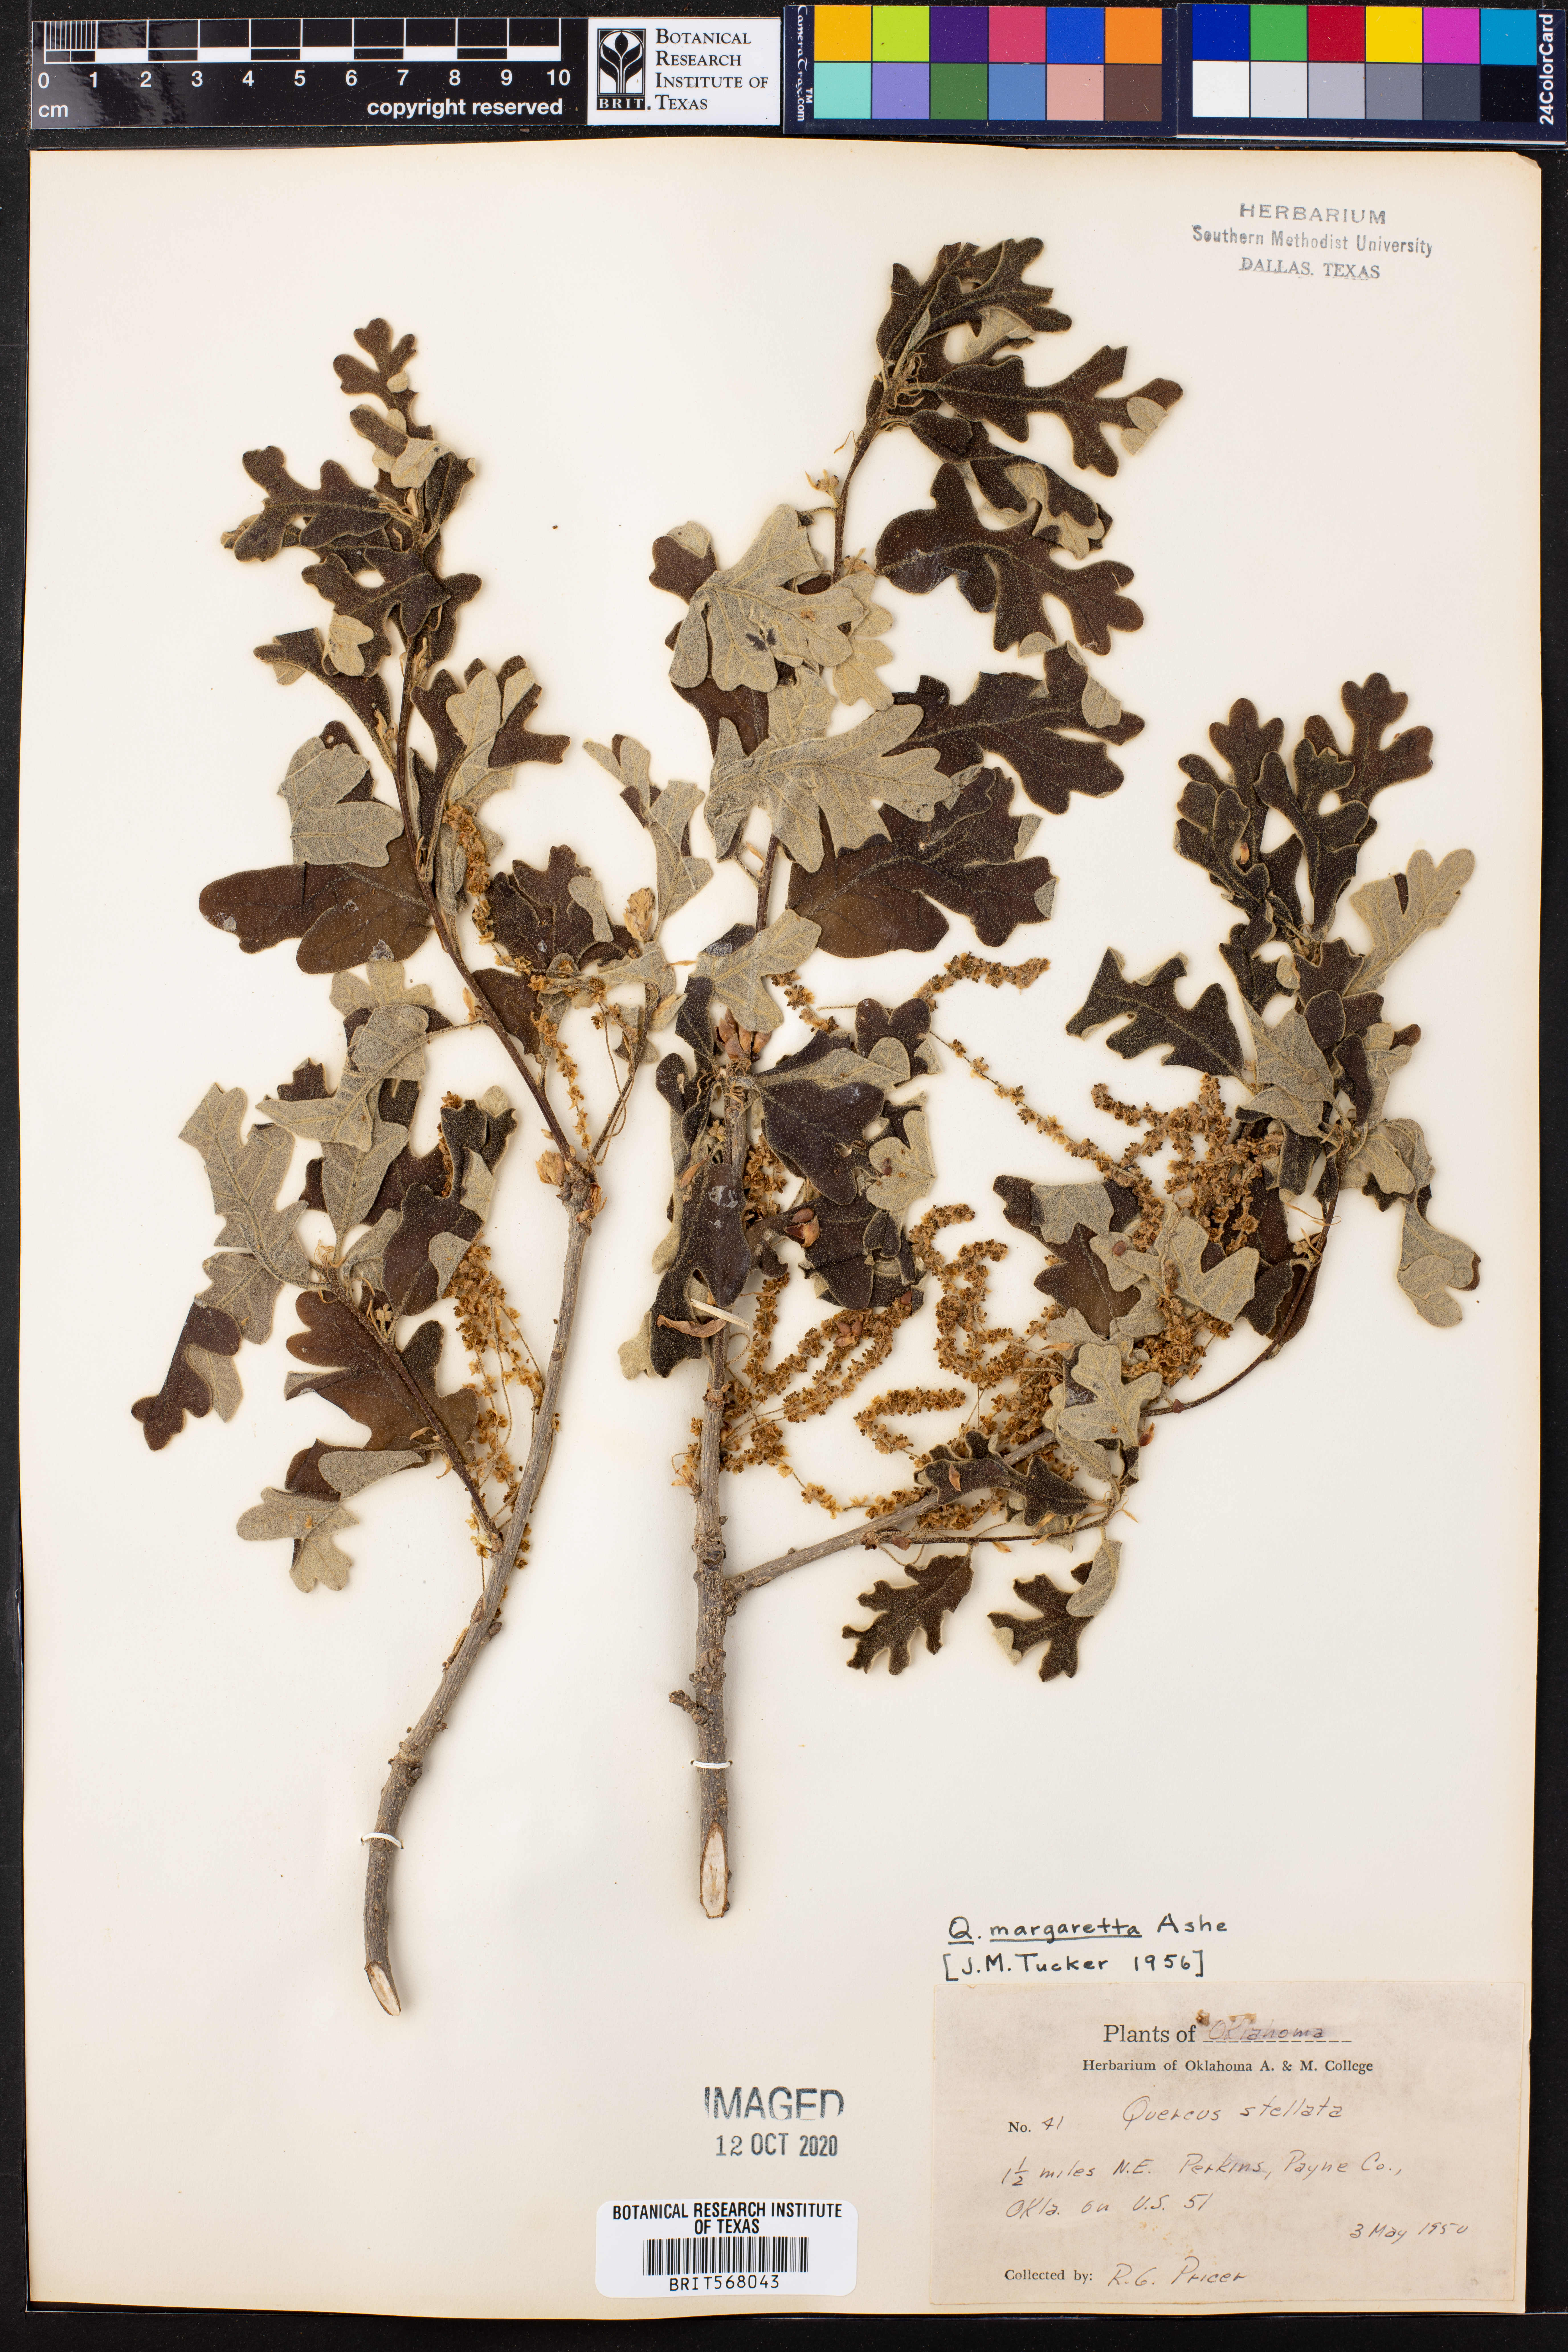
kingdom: Plantae
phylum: Tracheophyta
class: Magnoliopsida
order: Fagales
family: Fagaceae
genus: Quercus
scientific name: Quercus margaretta
